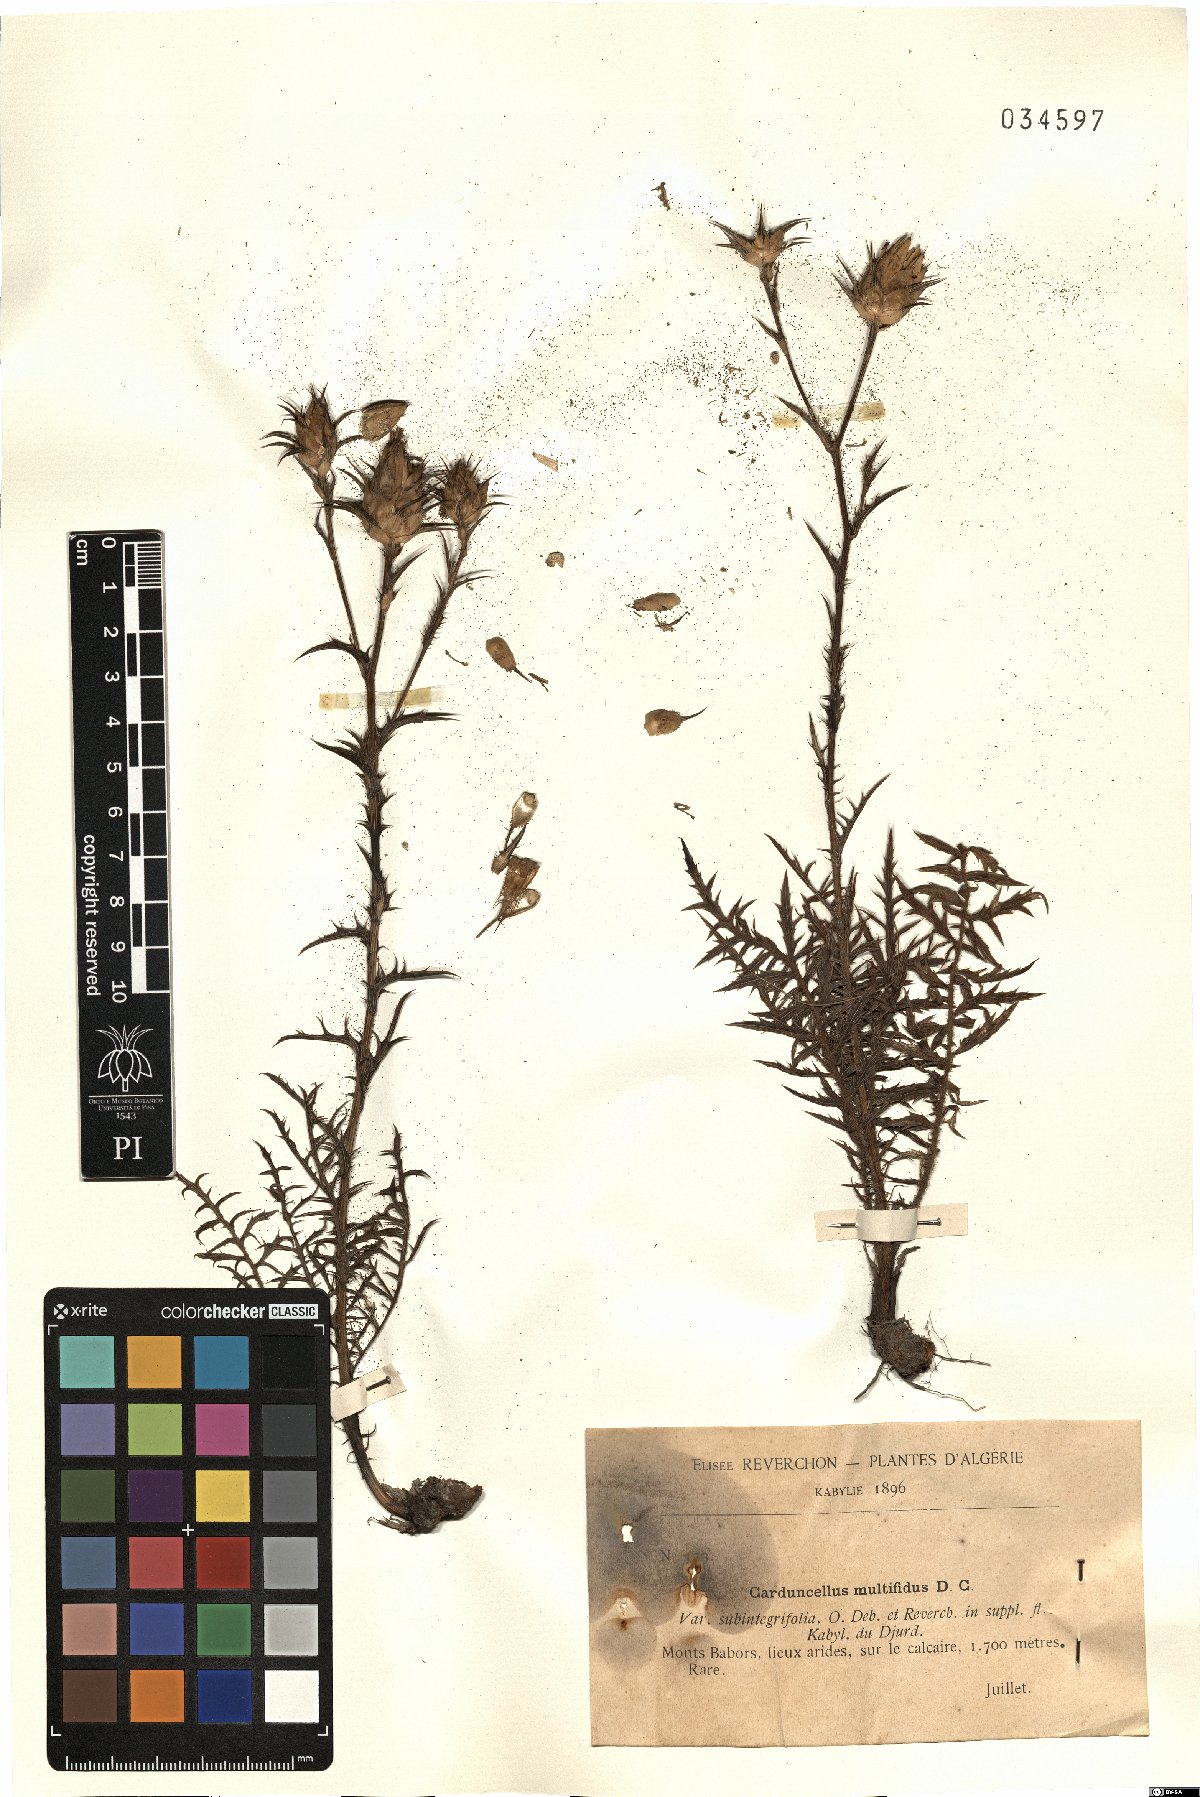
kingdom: Plantae
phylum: Tracheophyta
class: Magnoliopsida
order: Asterales
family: Asteraceae
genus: Carduncellus
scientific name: Carduncellus caeruleus
